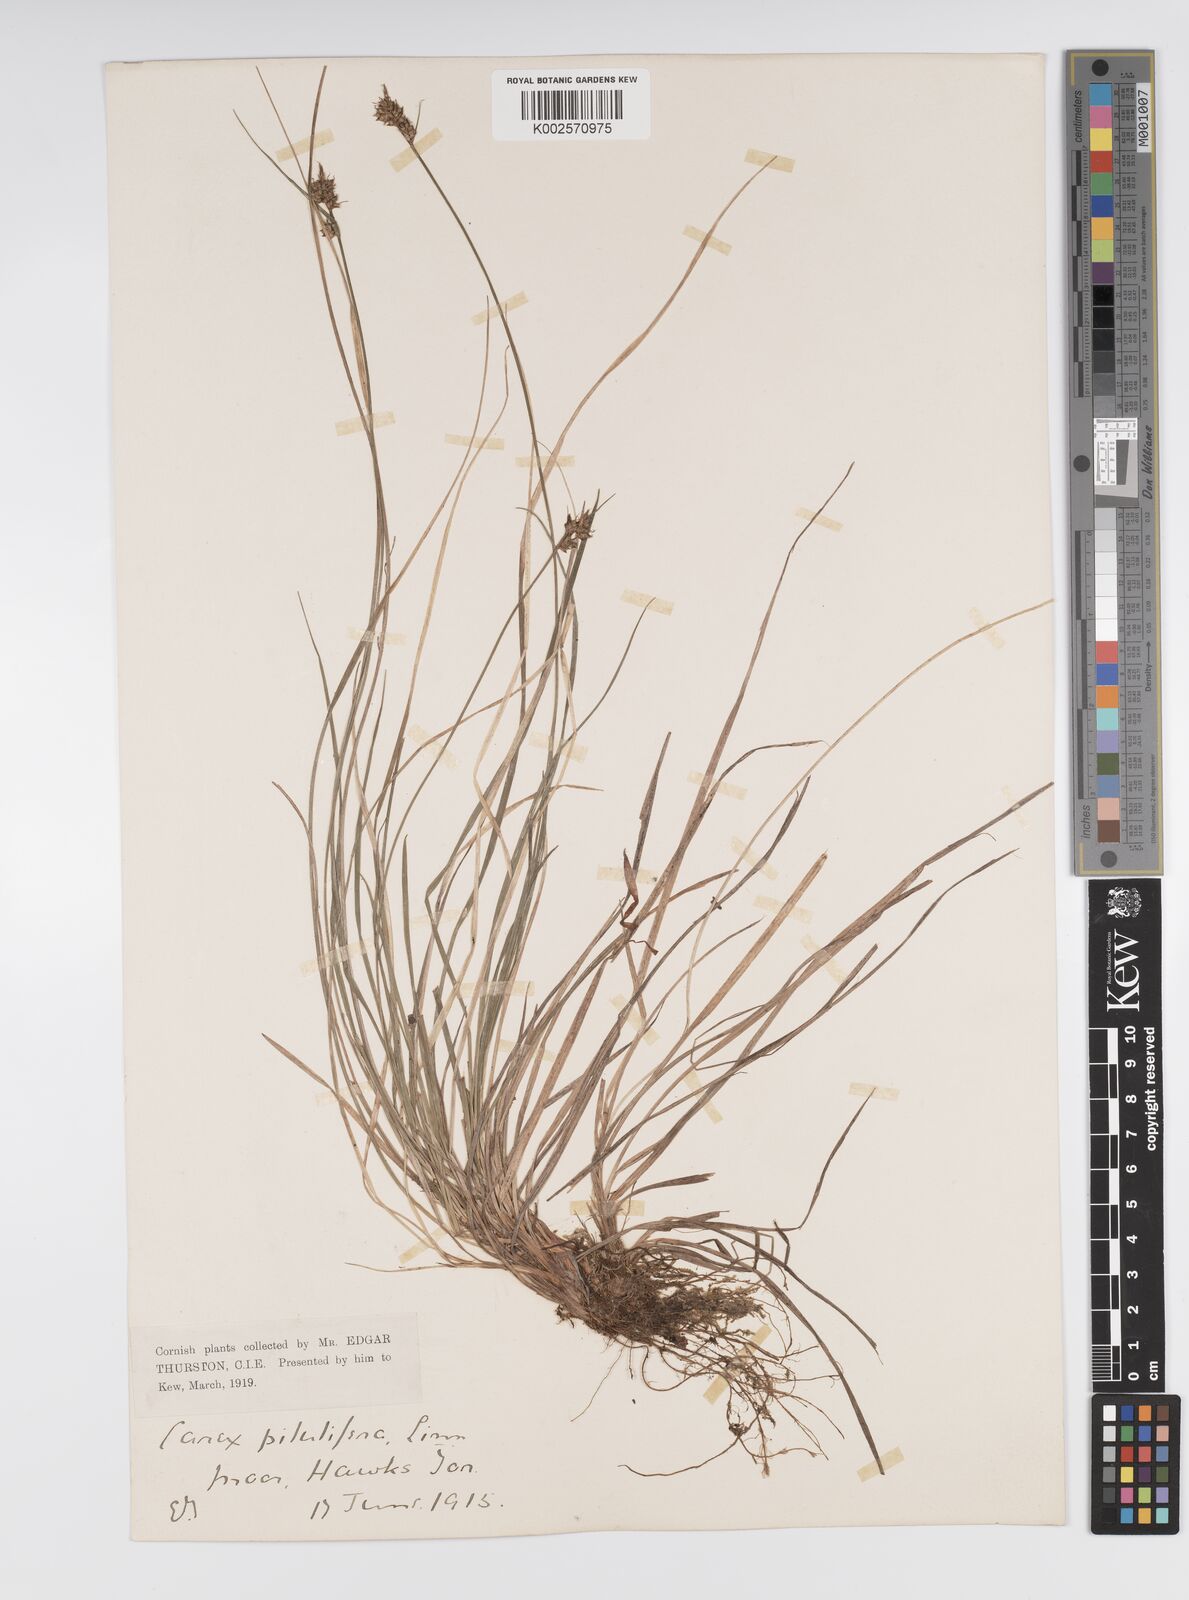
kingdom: Plantae
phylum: Tracheophyta
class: Liliopsida
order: Poales
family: Cyperaceae
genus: Carex
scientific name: Carex pilulifera
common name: Pill sedge
